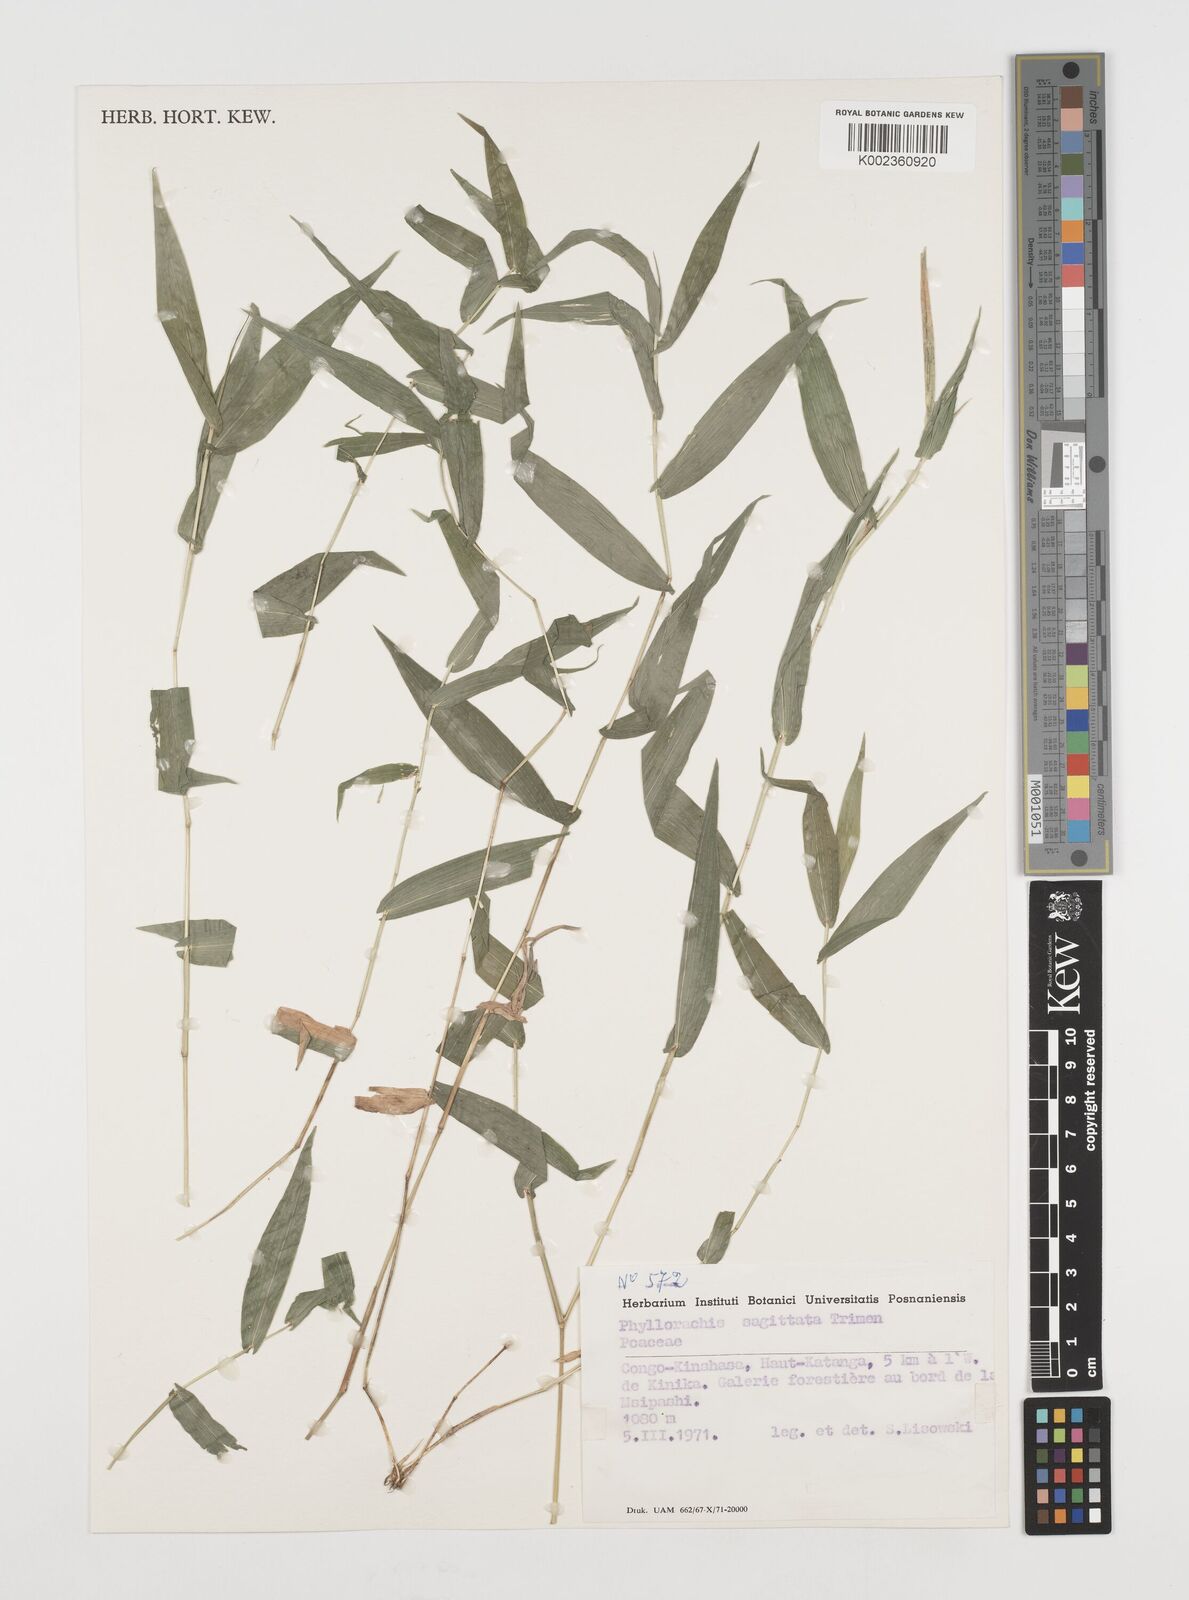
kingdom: Plantae
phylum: Tracheophyta
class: Liliopsida
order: Poales
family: Poaceae
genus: Phyllorachis
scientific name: Phyllorachis sagittata
